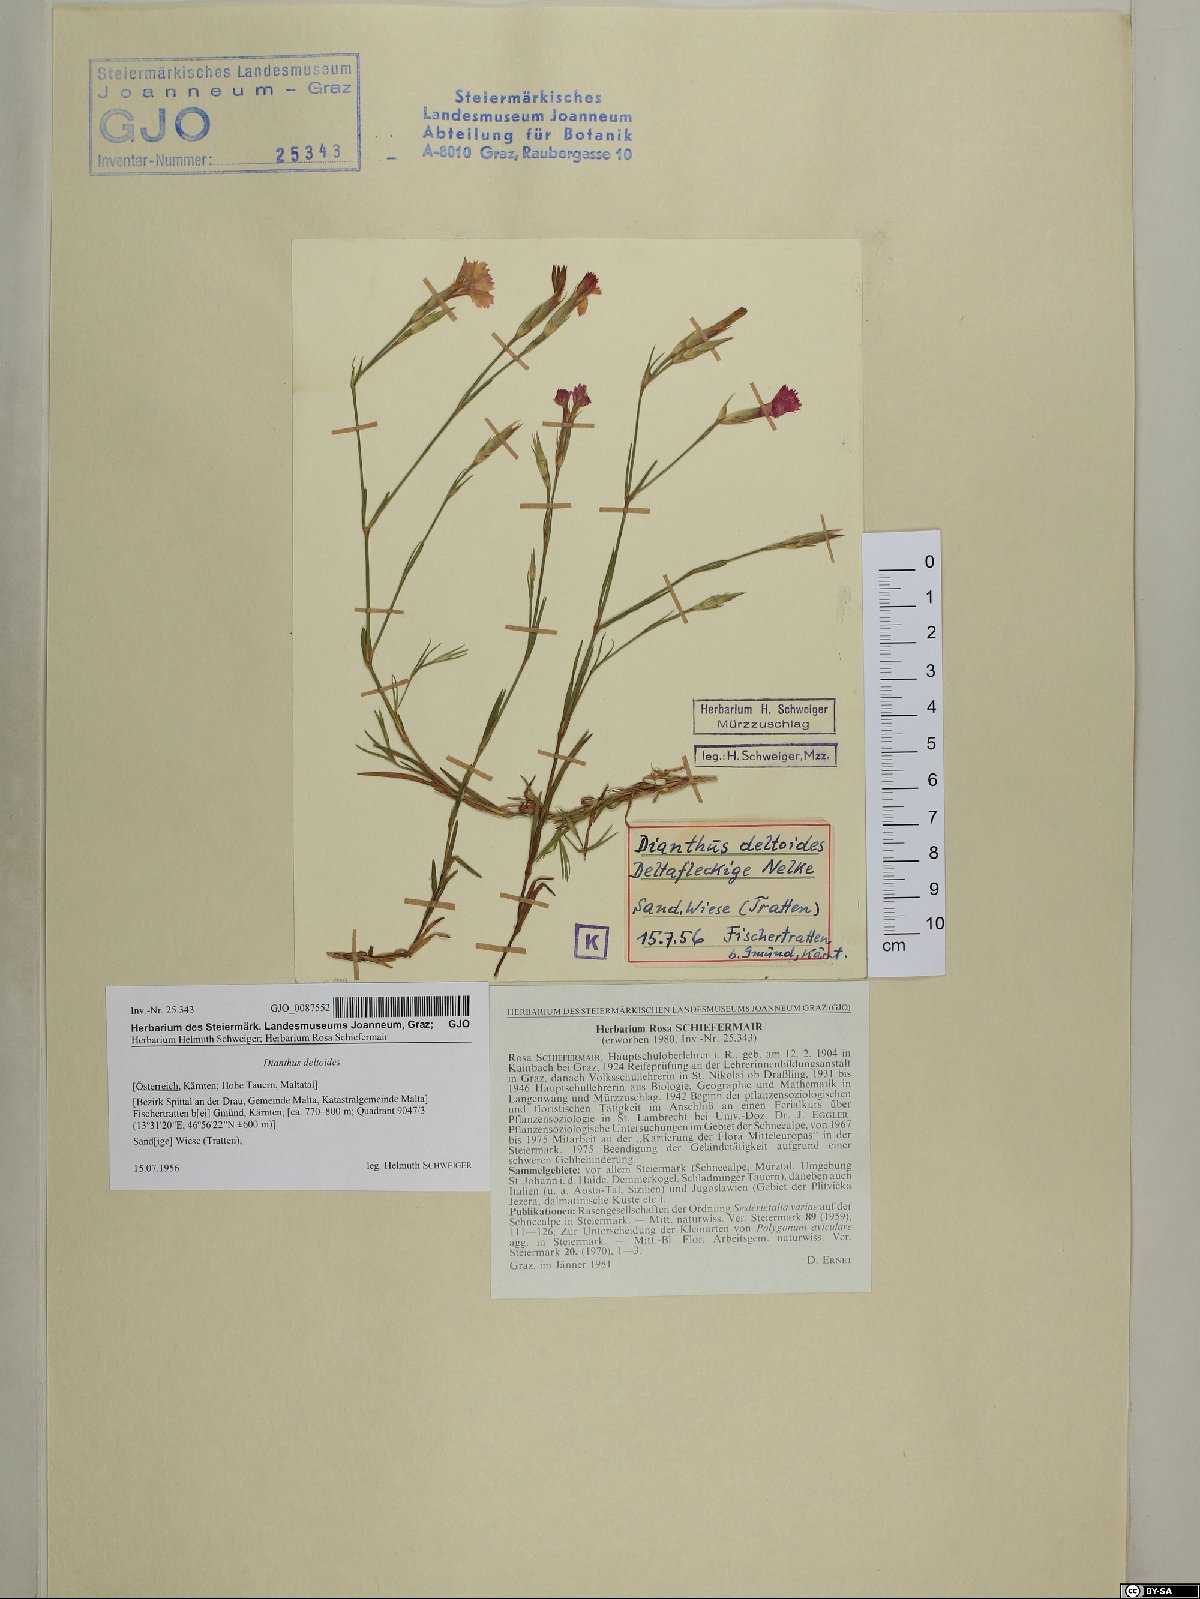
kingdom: Plantae
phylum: Tracheophyta
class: Magnoliopsida
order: Caryophyllales
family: Caryophyllaceae
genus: Dianthus
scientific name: Dianthus deltoides
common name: Maiden pink
